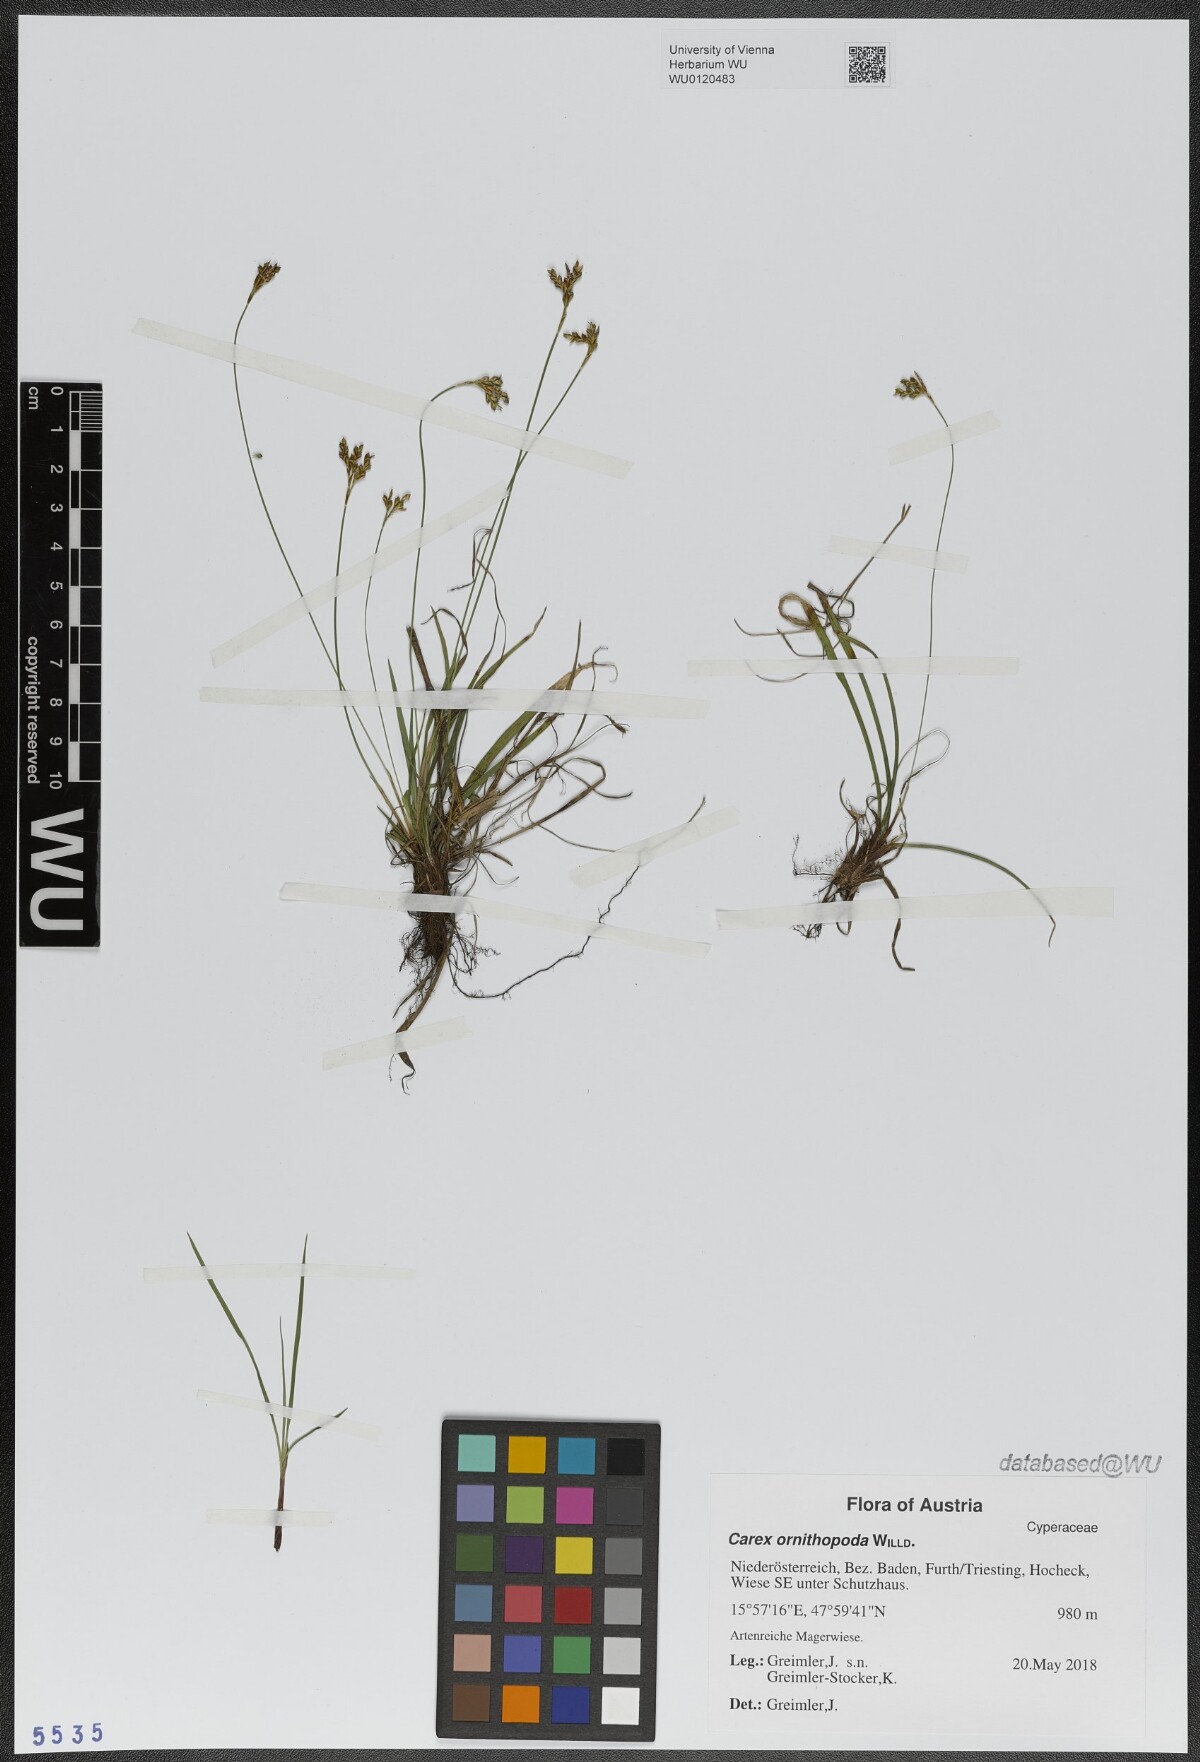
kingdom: Plantae
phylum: Tracheophyta
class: Liliopsida
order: Poales
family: Cyperaceae
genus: Carex
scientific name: Carex ornithopoda
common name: Bird's-foot sedge
